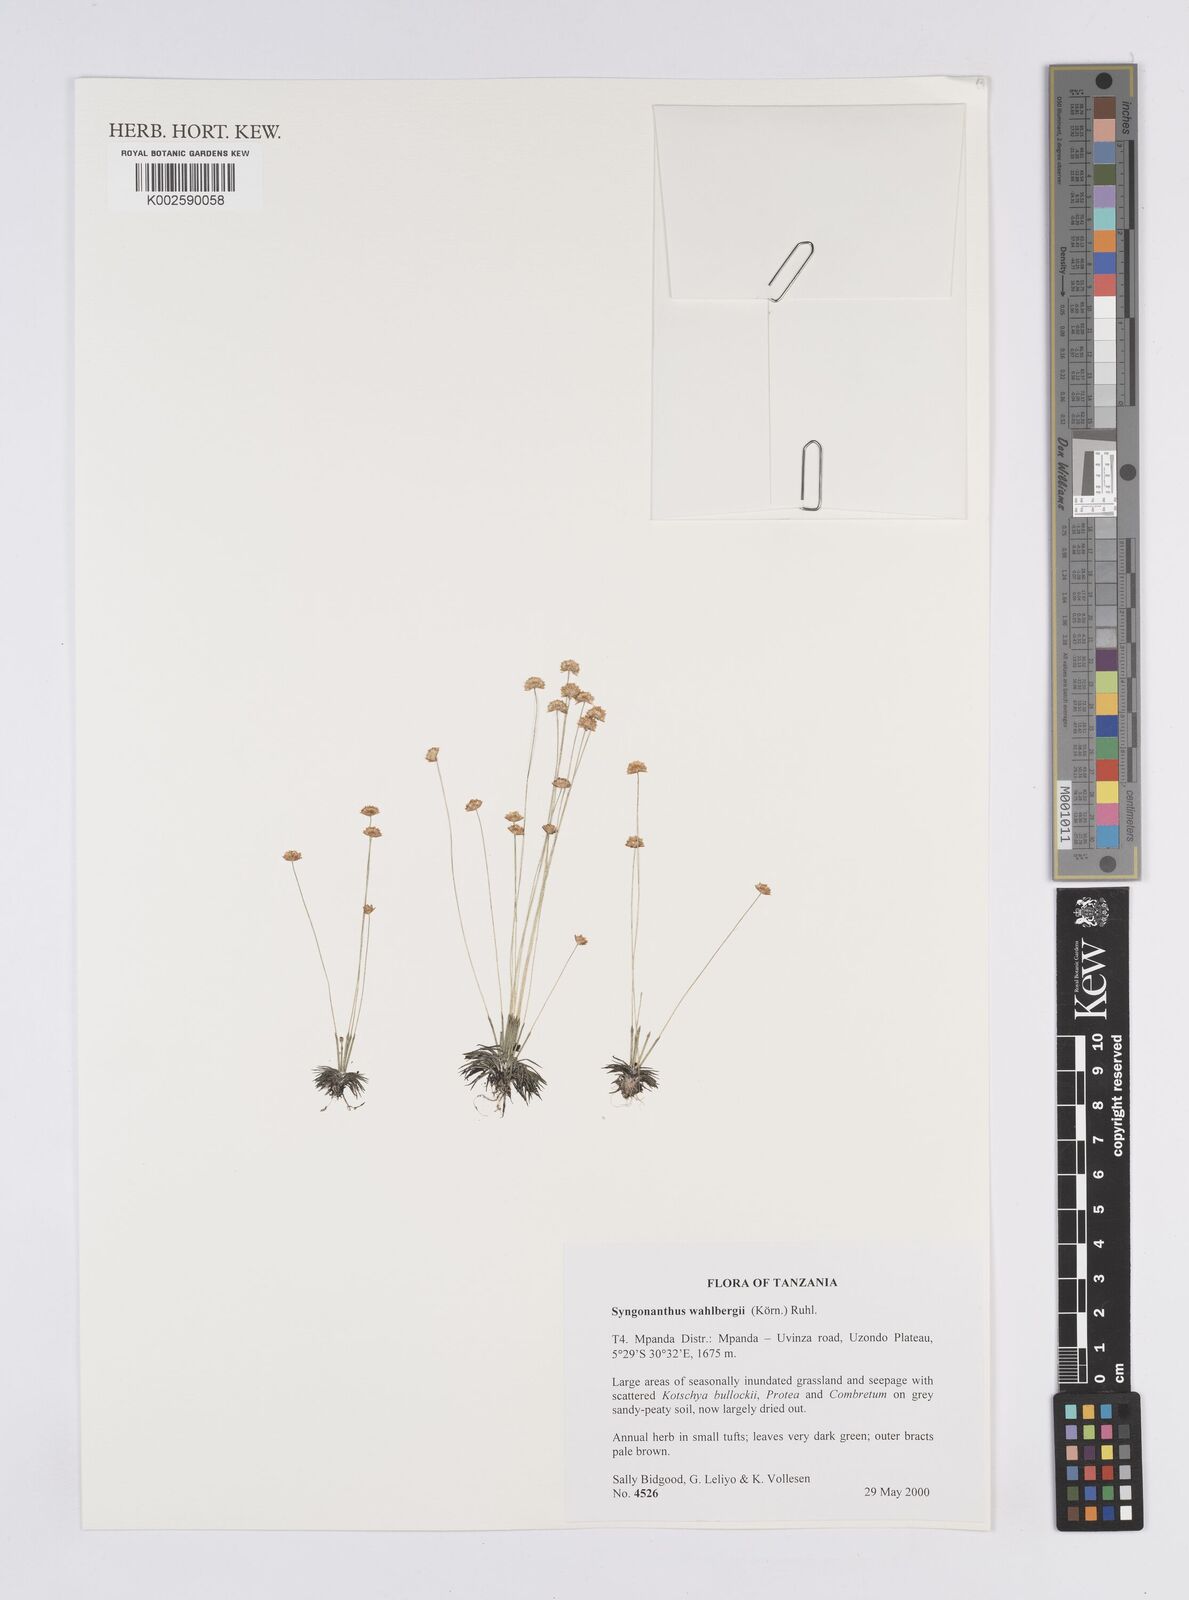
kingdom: Plantae
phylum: Tracheophyta
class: Liliopsida
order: Poales
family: Eriocaulaceae
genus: Syngonanthus
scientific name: Syngonanthus wahlbergii
